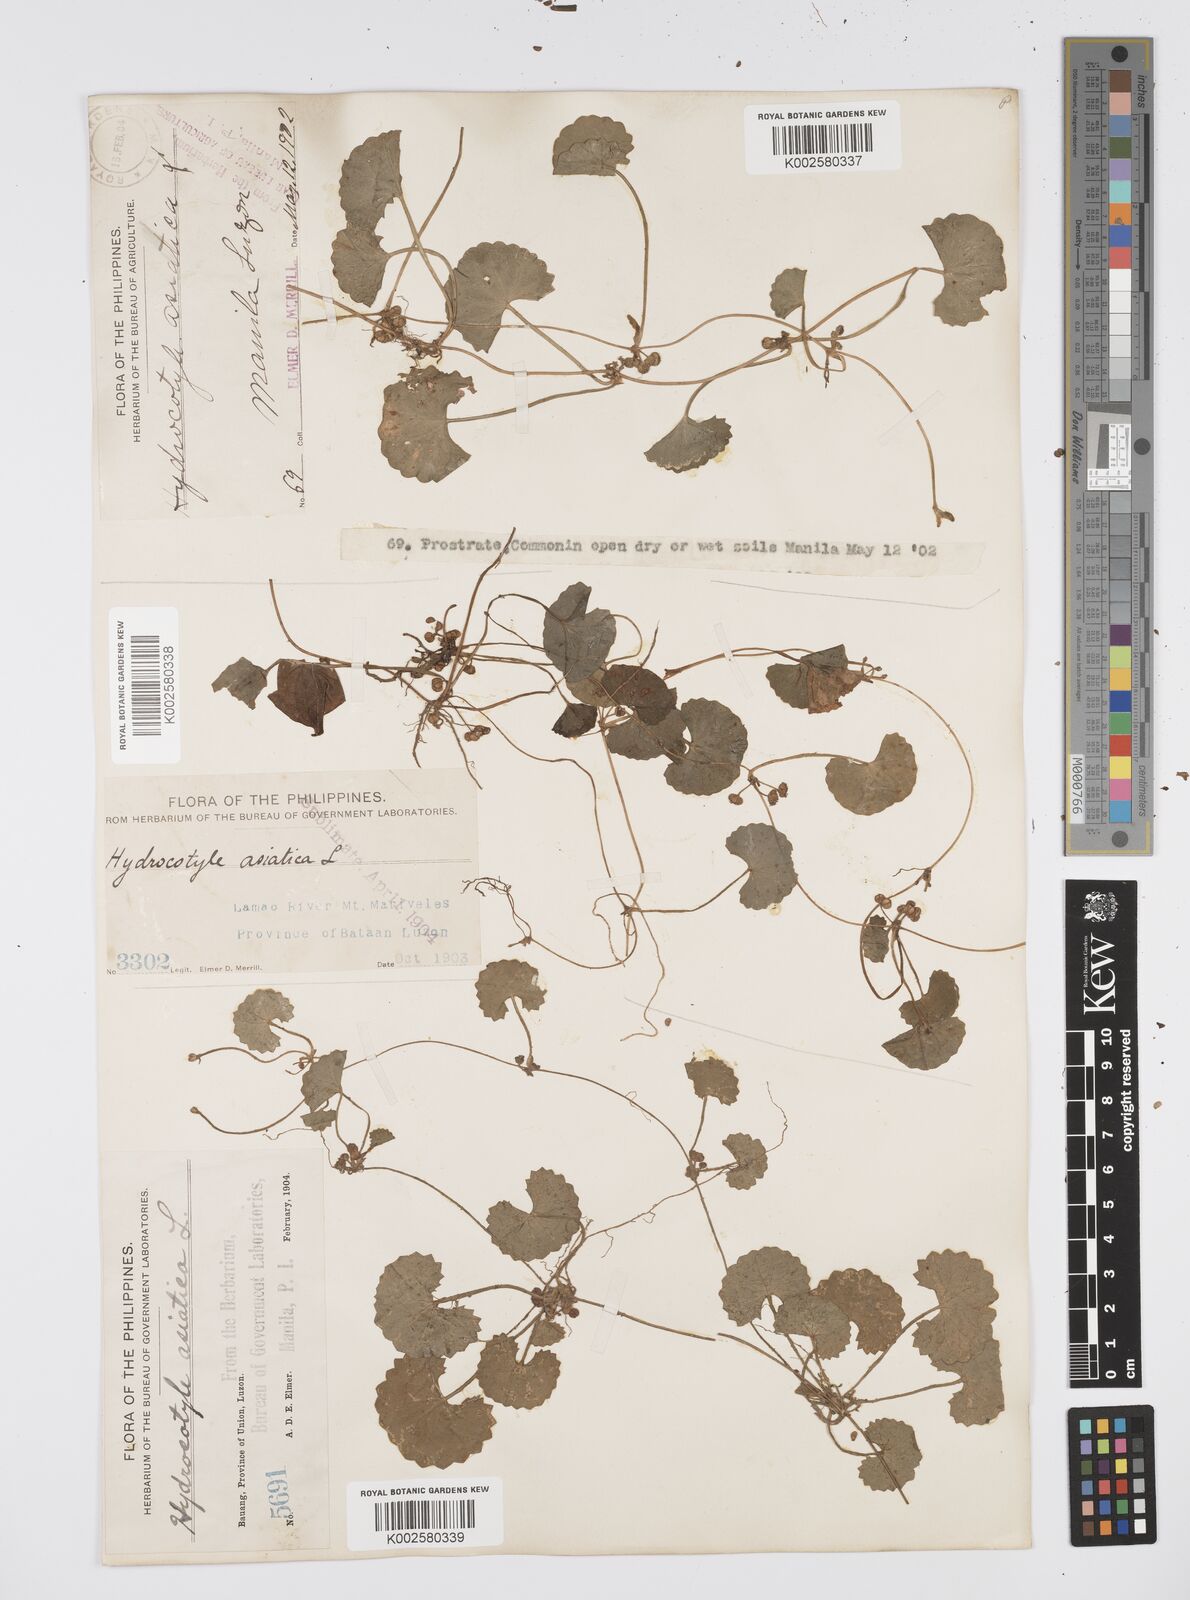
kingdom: Plantae
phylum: Tracheophyta
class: Magnoliopsida
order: Apiales
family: Apiaceae
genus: Centella
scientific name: Centella asiatica
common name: Spadeleaf
